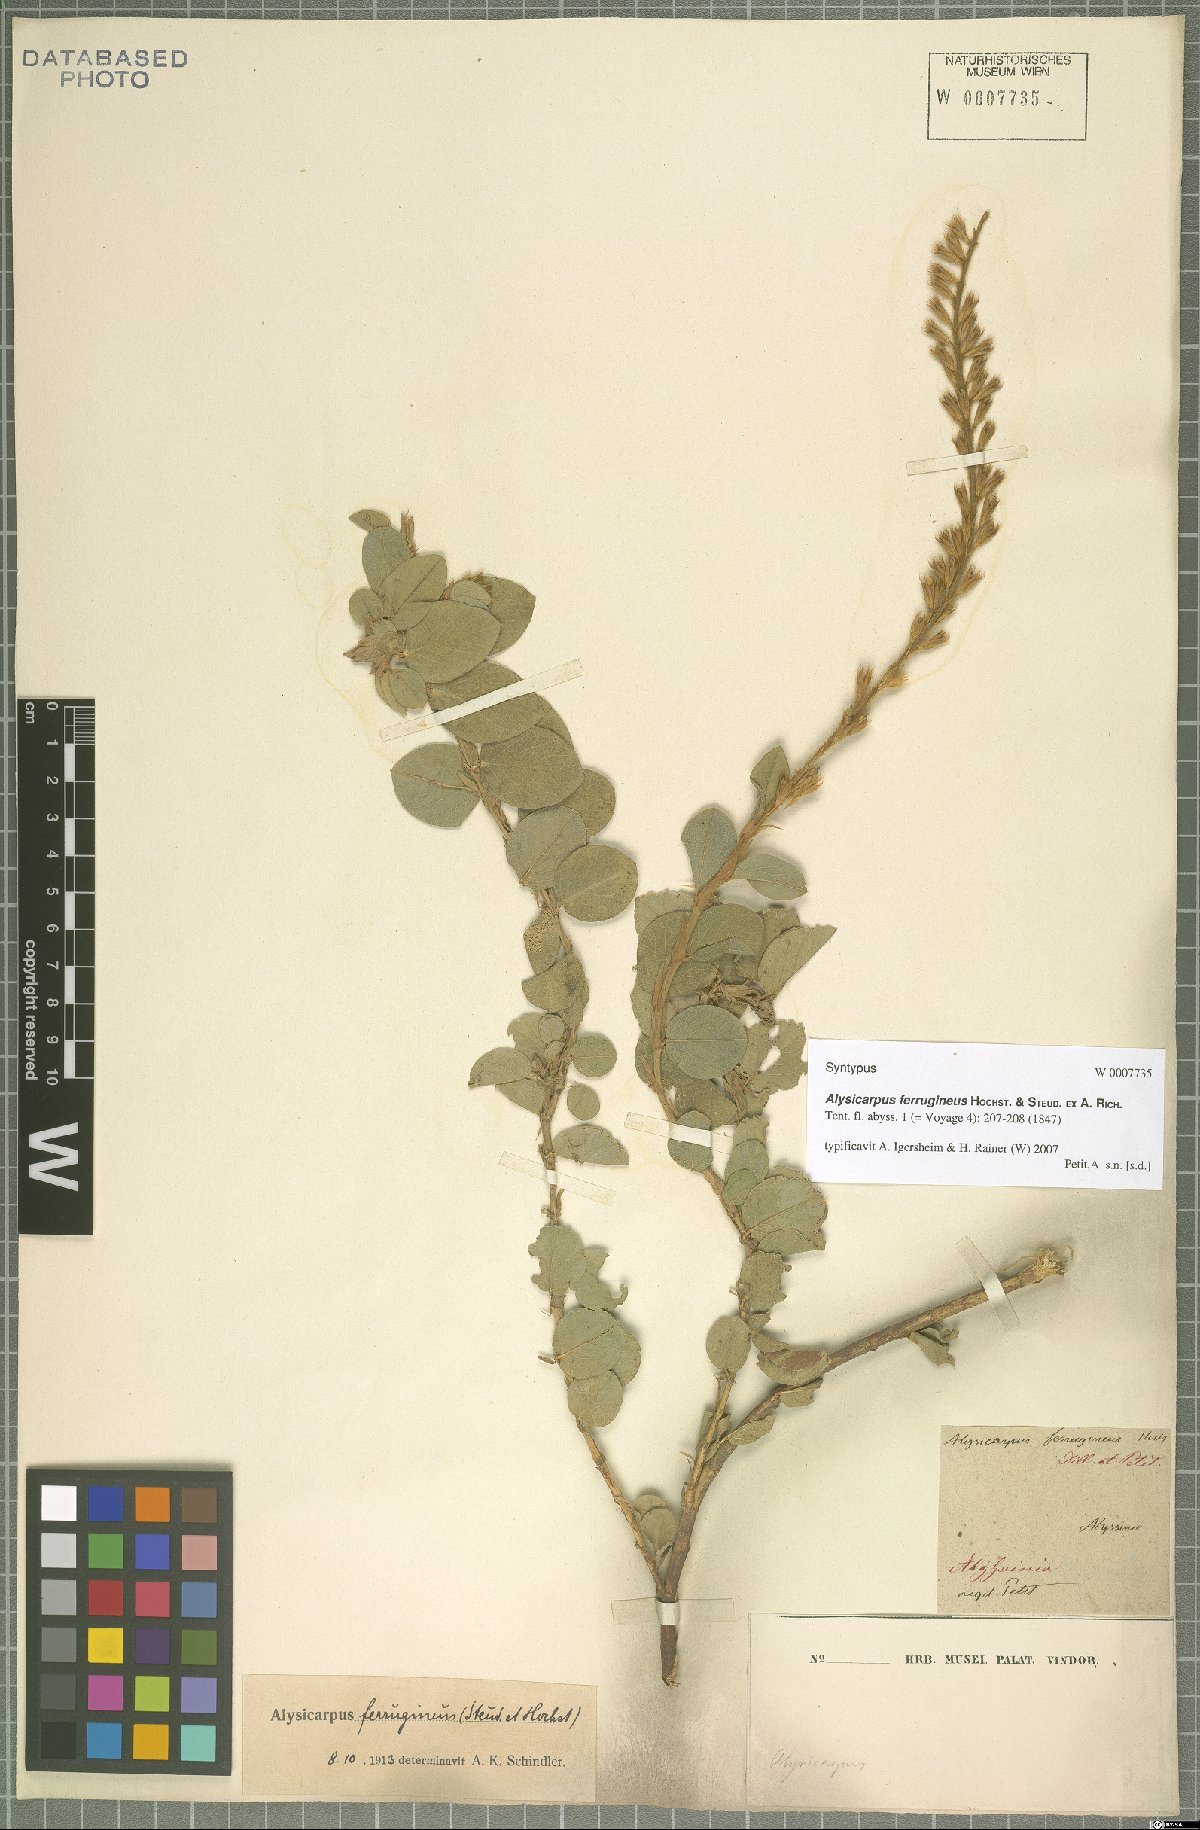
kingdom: Plantae
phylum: Tracheophyta
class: Magnoliopsida
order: Fabales
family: Fabaceae
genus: Alysicarpus
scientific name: Alysicarpus ferrugineus
